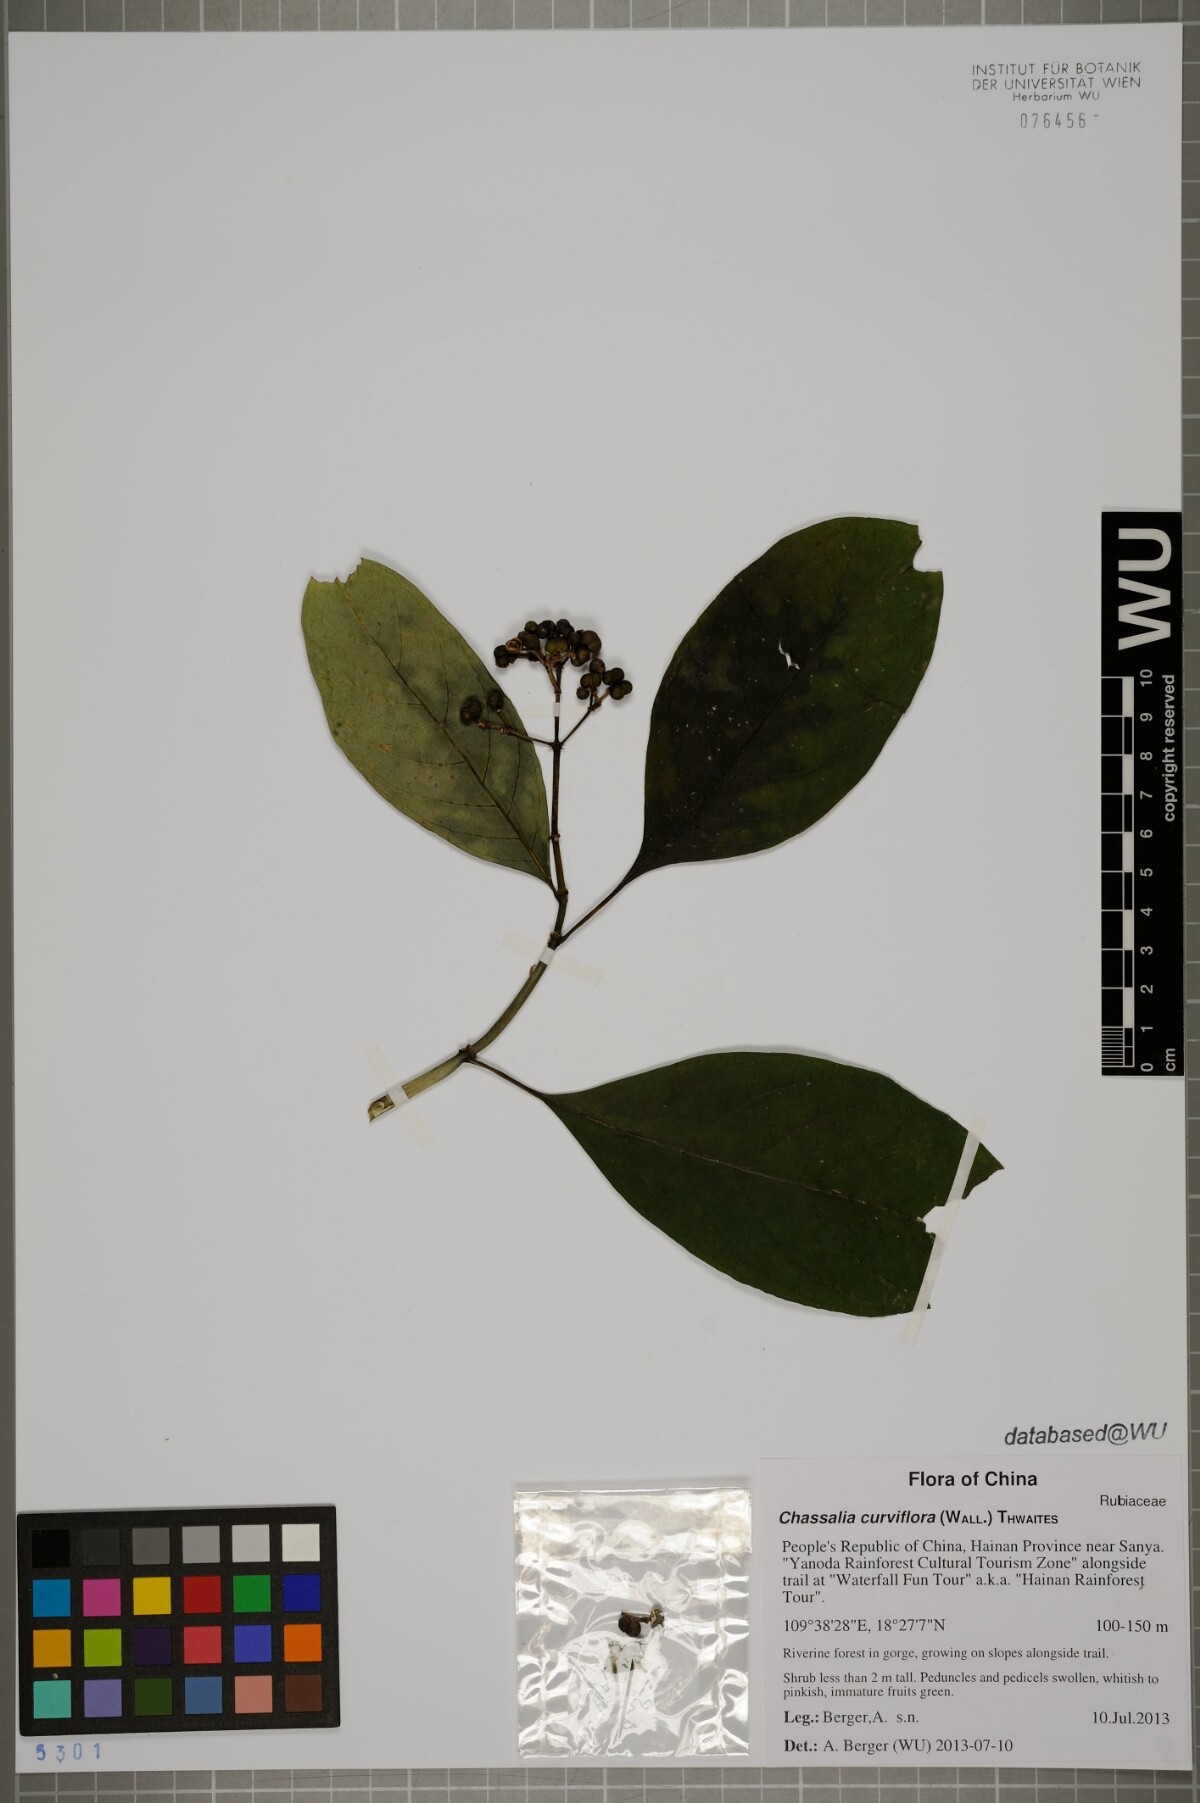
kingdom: Plantae
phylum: Tracheophyta
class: Magnoliopsida
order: Gentianales
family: Rubiaceae
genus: Chassalia
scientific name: Chassalia curviflora
